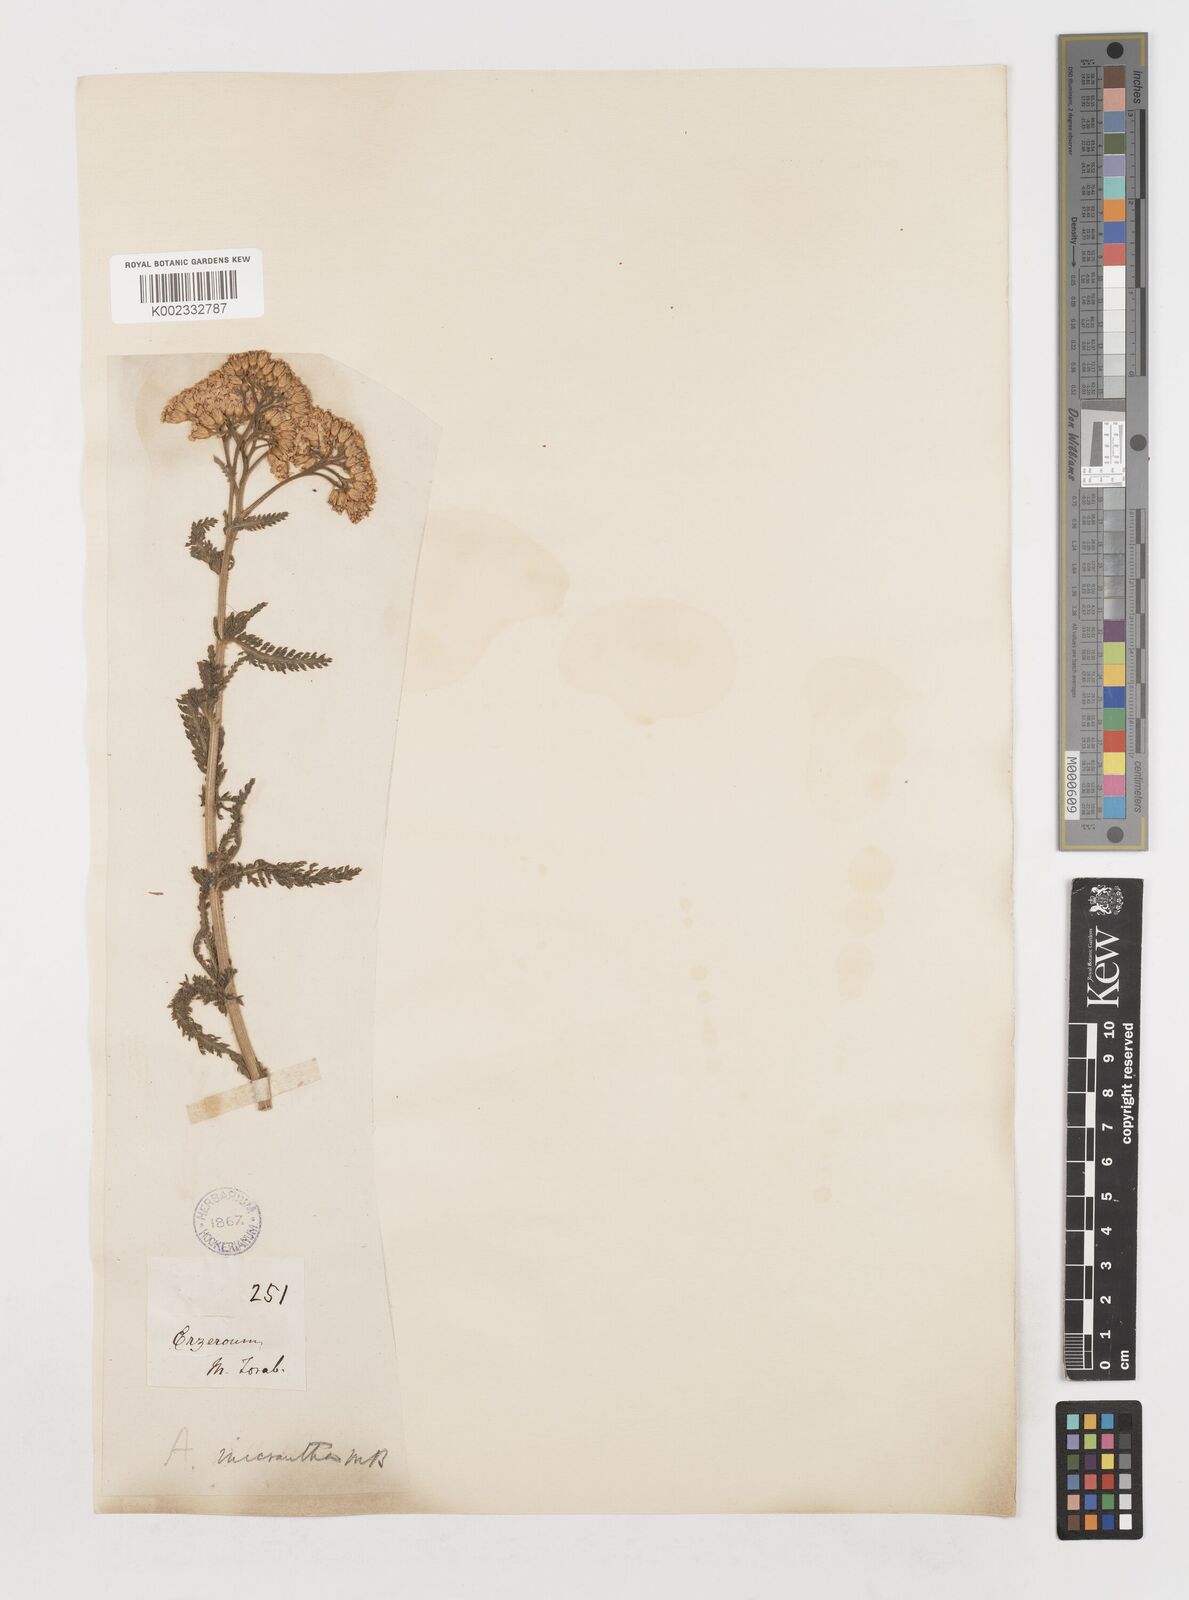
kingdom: Plantae
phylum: Tracheophyta
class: Magnoliopsida
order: Asterales
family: Asteraceae
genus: Achillea
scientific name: Achillea arabica
